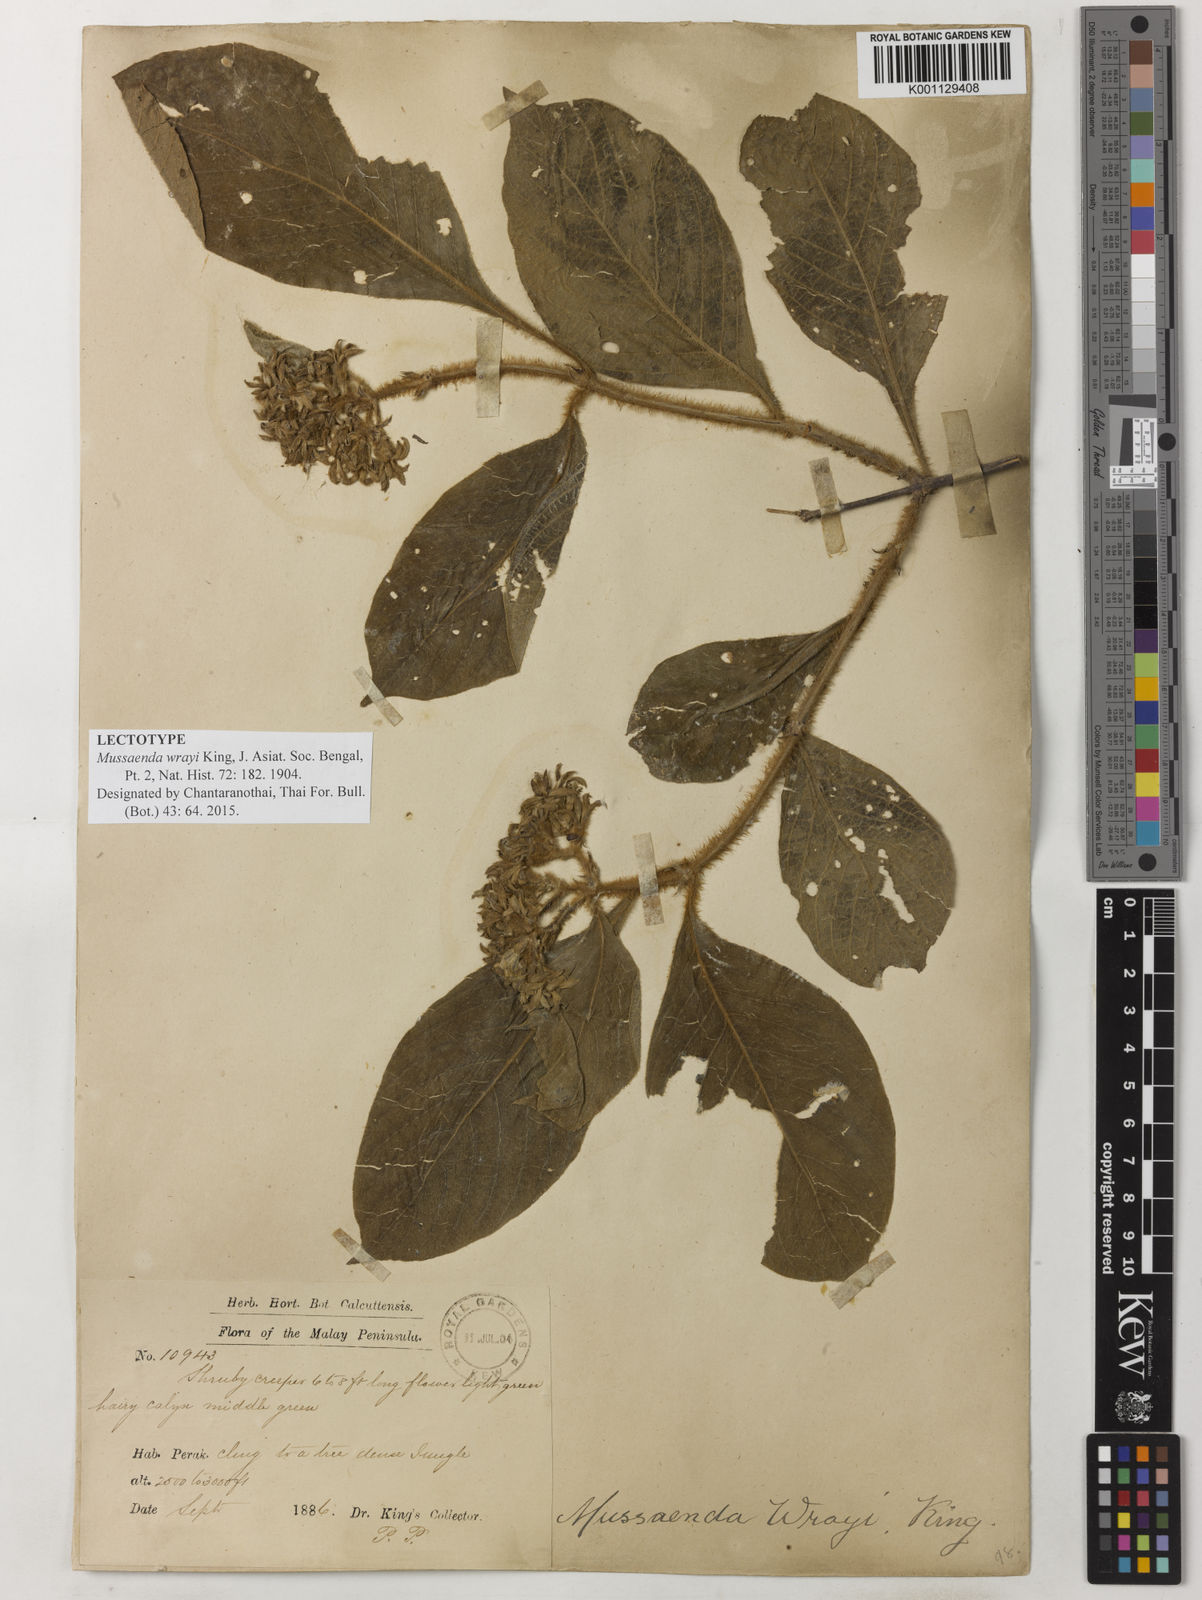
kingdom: Plantae
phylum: Tracheophyta
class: Magnoliopsida
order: Gentianales
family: Rubiaceae
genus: Mussaenda
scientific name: Mussaenda wrayi
